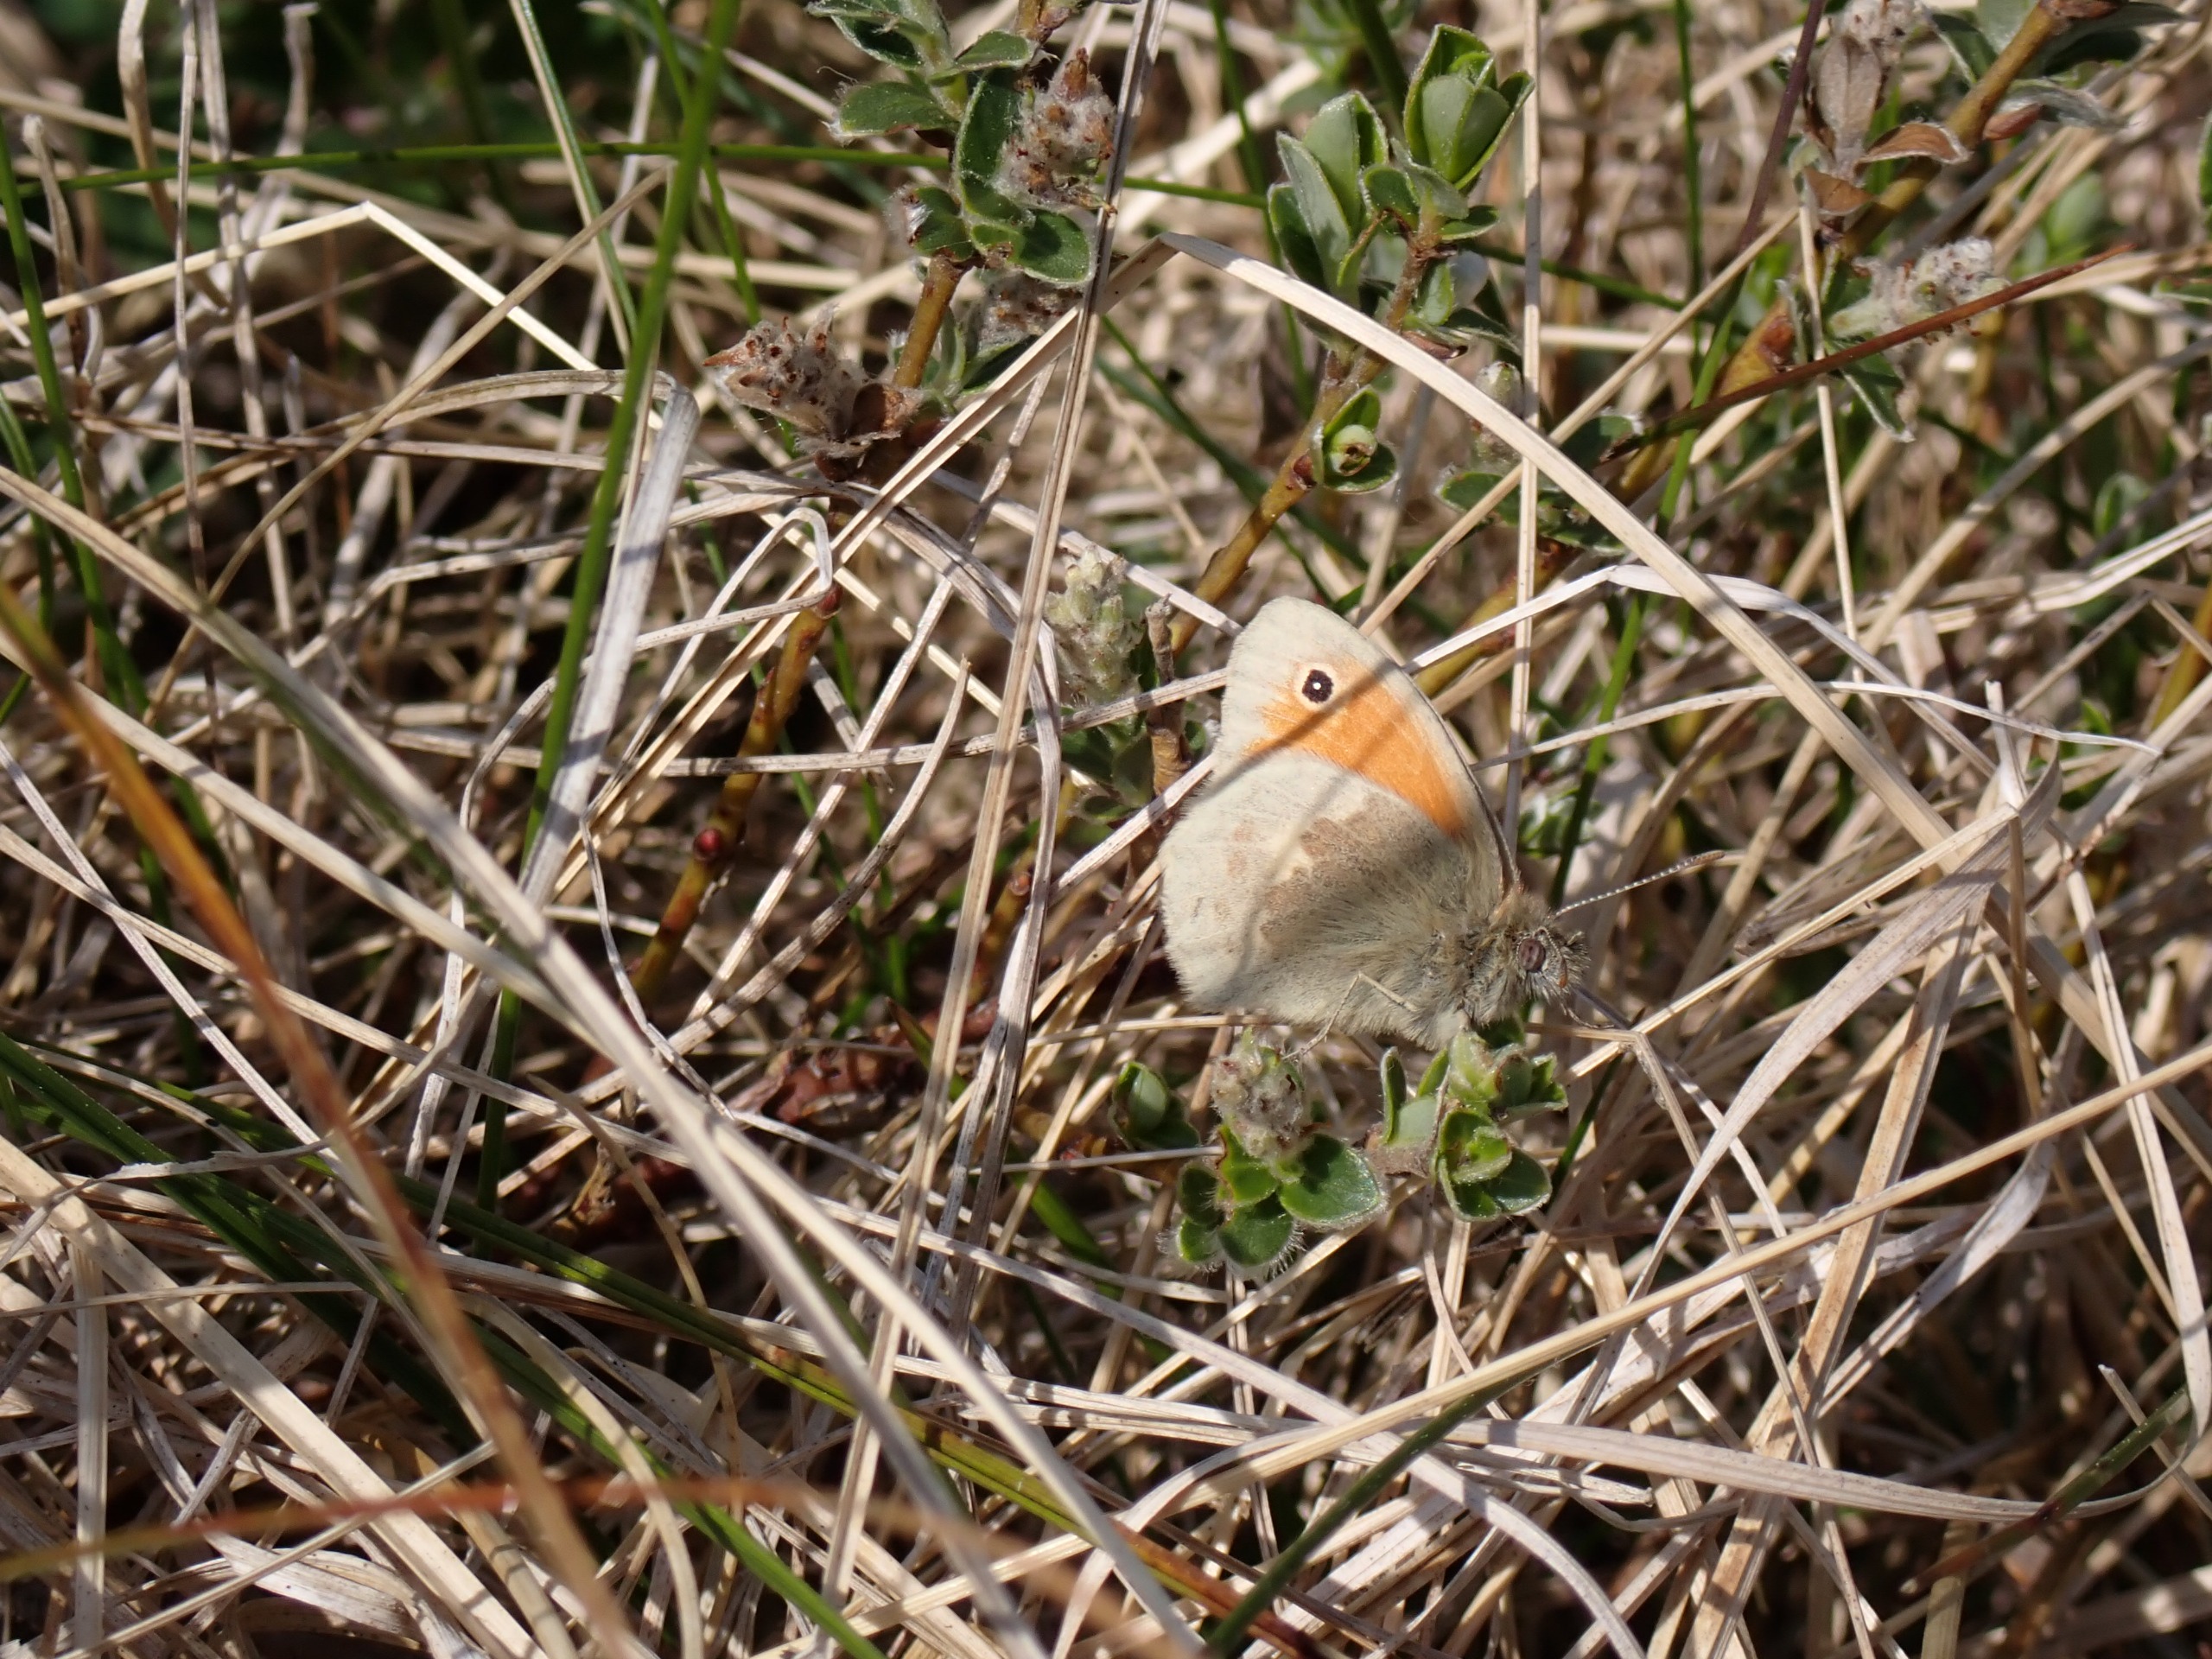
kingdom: Animalia
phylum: Arthropoda
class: Insecta
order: Lepidoptera
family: Nymphalidae
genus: Coenonympha
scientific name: Coenonympha pamphilus
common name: Okkergul randøje
